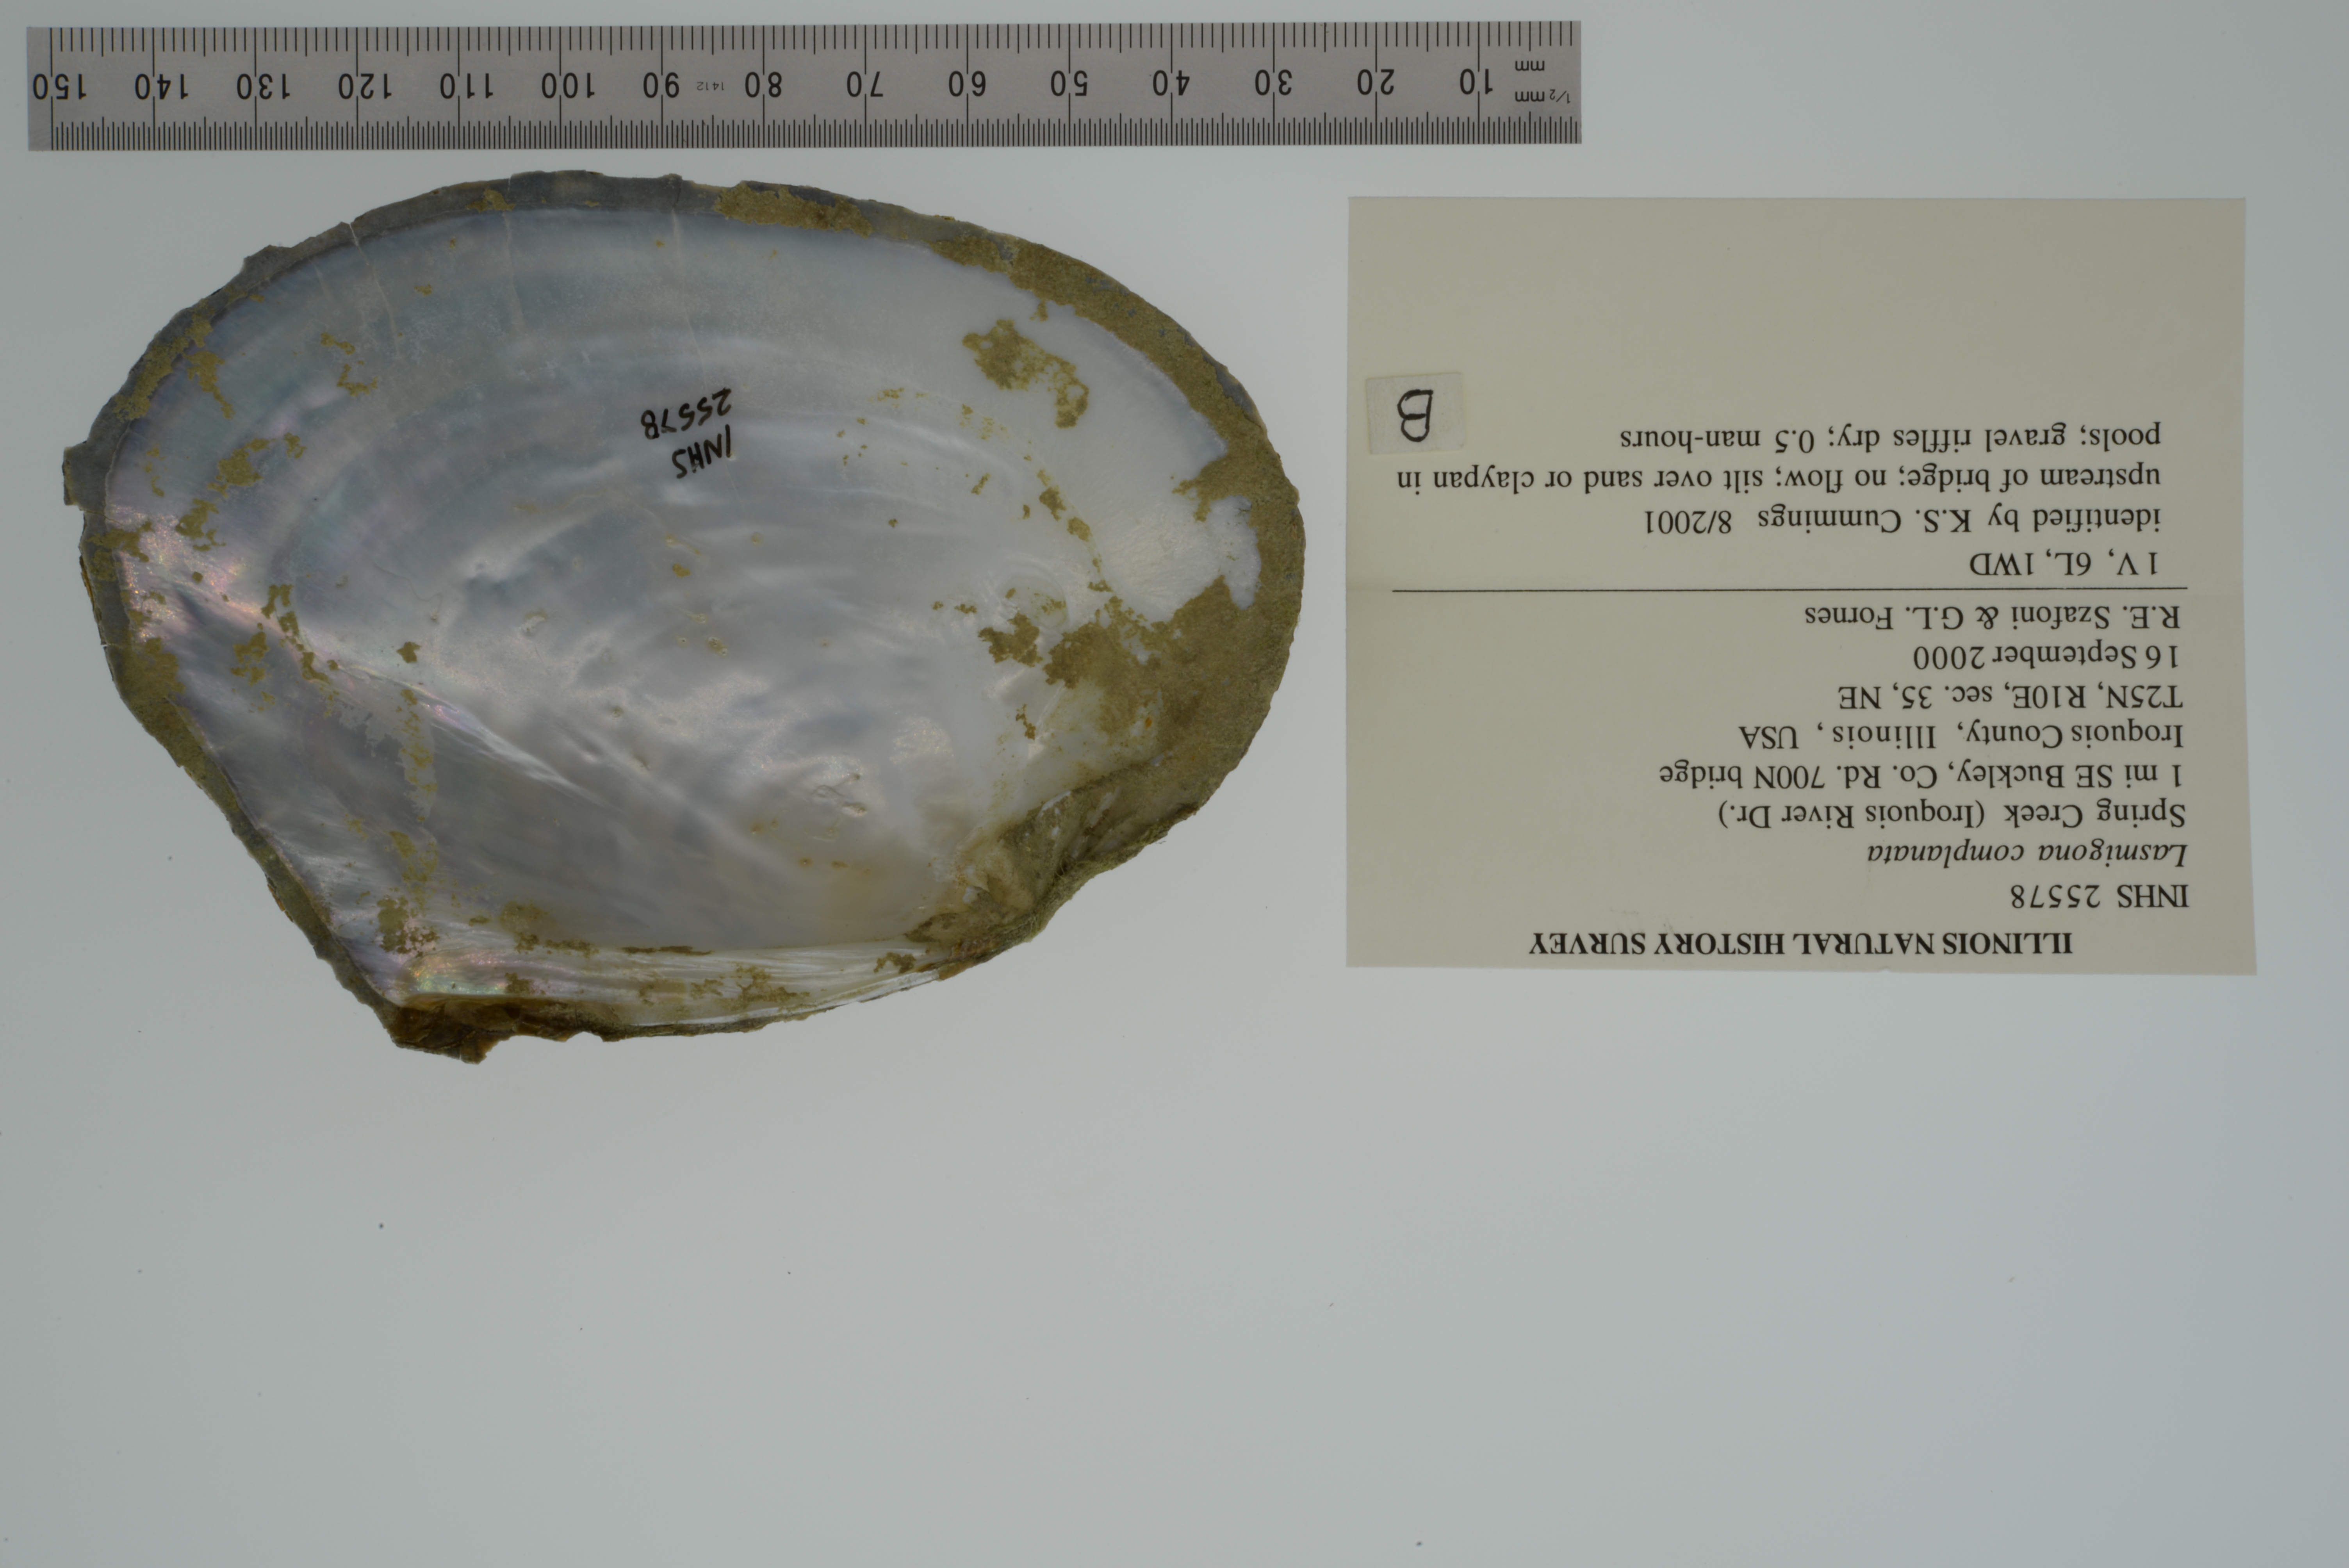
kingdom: Animalia
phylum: Mollusca
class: Bivalvia
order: Unionida
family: Unionidae
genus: Lasmigona
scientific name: Lasmigona complanata
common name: White heelsplitter
